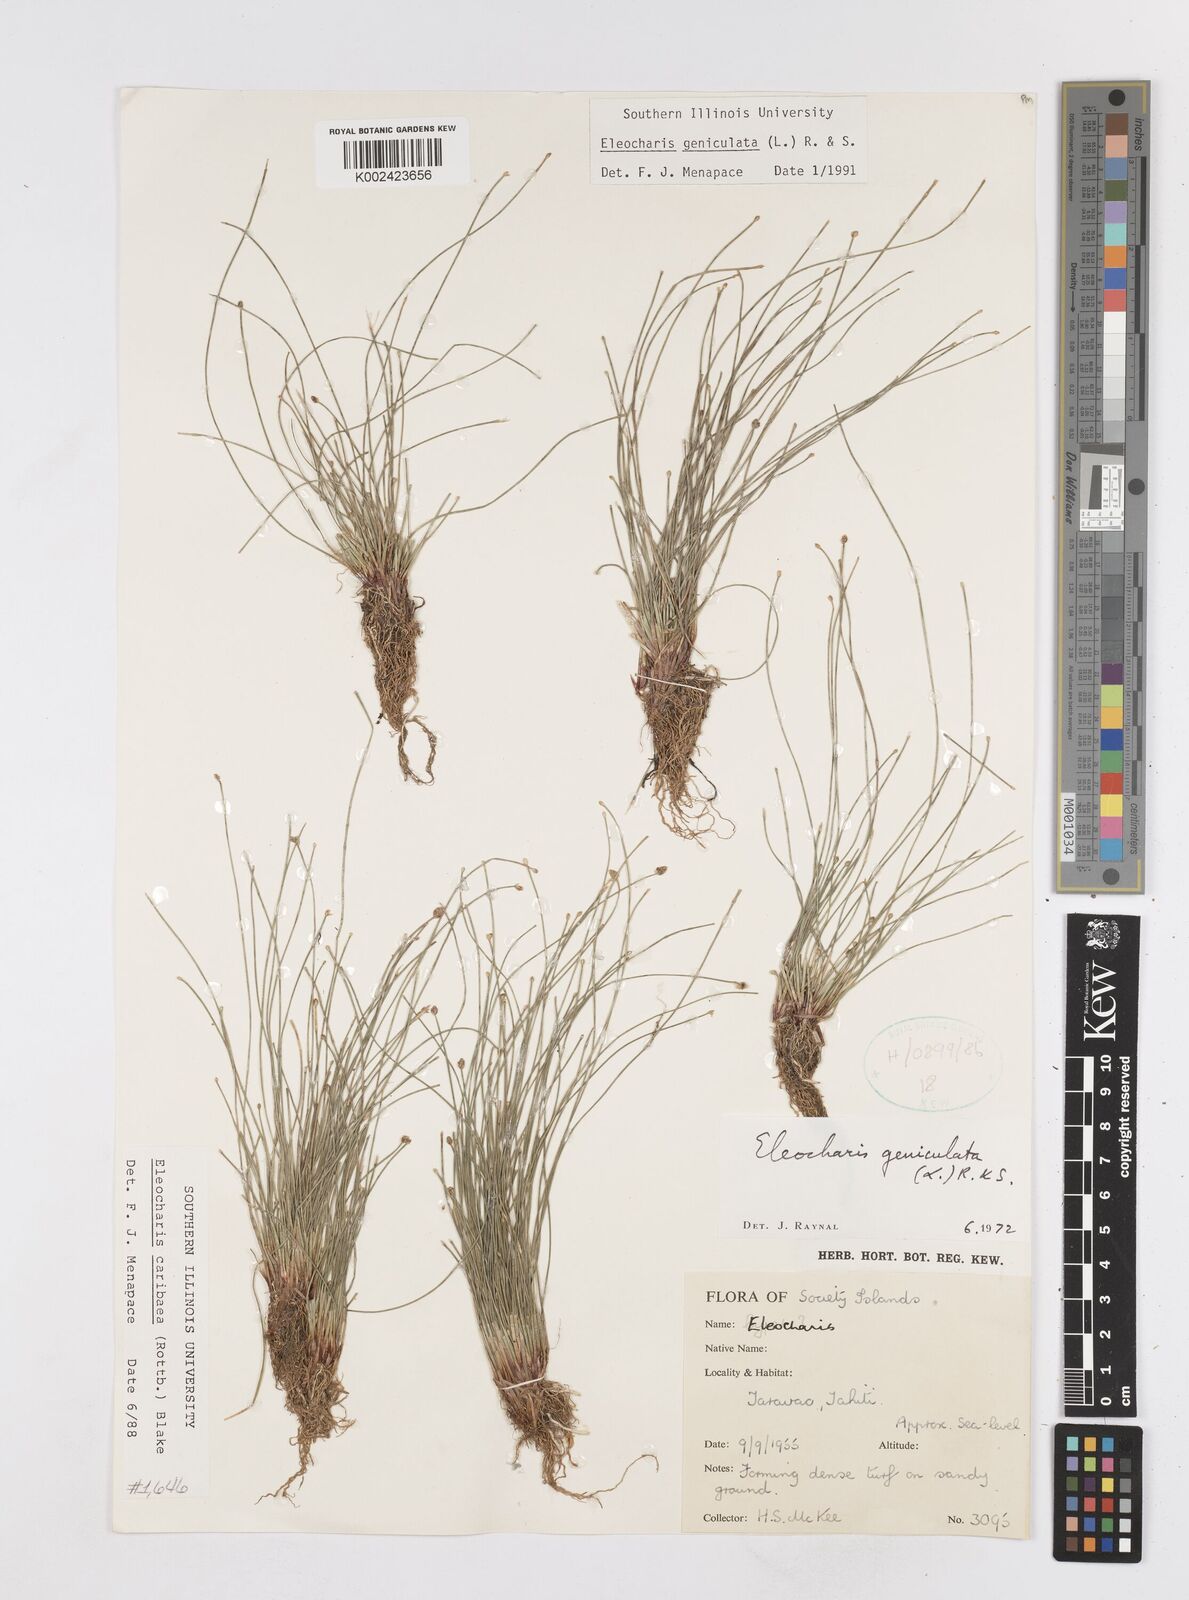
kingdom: Plantae
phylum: Tracheophyta
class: Liliopsida
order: Poales
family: Cyperaceae
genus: Eleocharis
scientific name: Eleocharis geniculata
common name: Canada spikesedge
